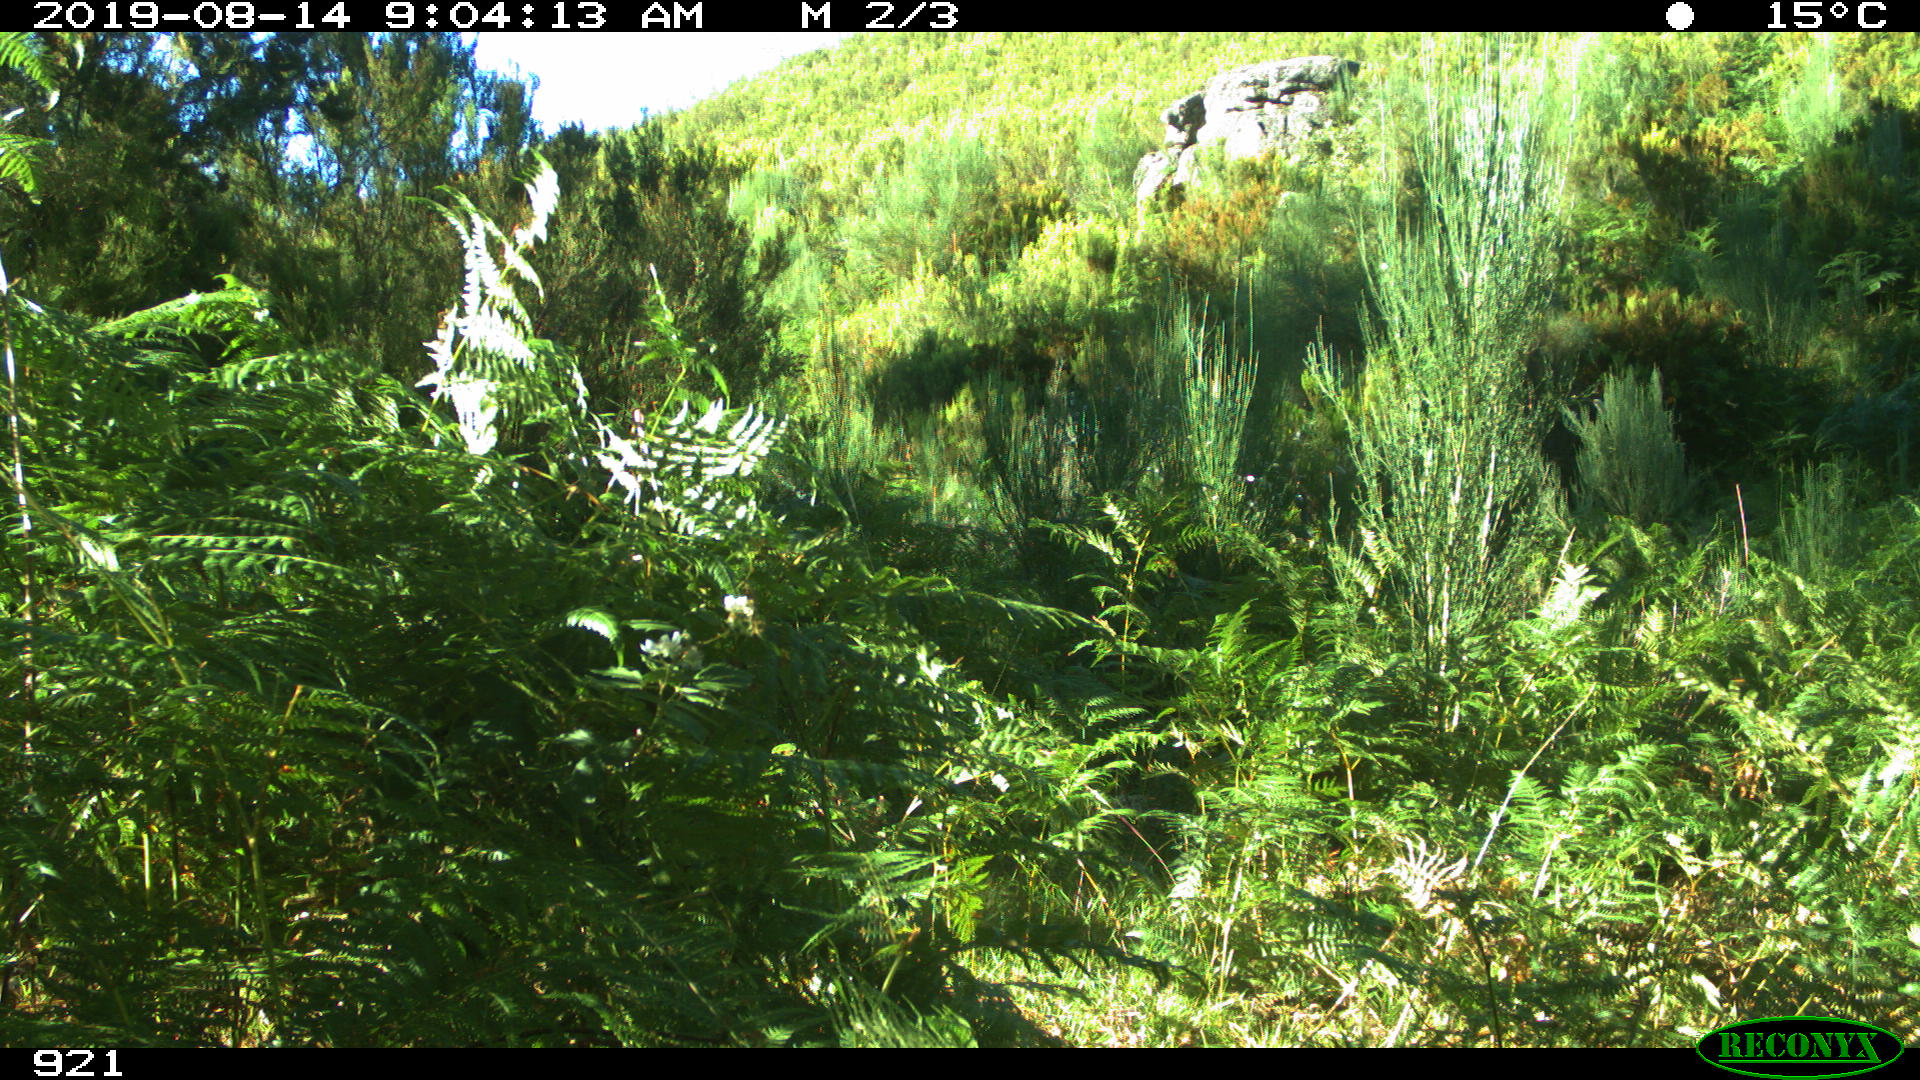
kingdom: Animalia
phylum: Chordata
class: Mammalia
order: Perissodactyla
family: Equidae
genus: Equus
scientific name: Equus caballus
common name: Horse
